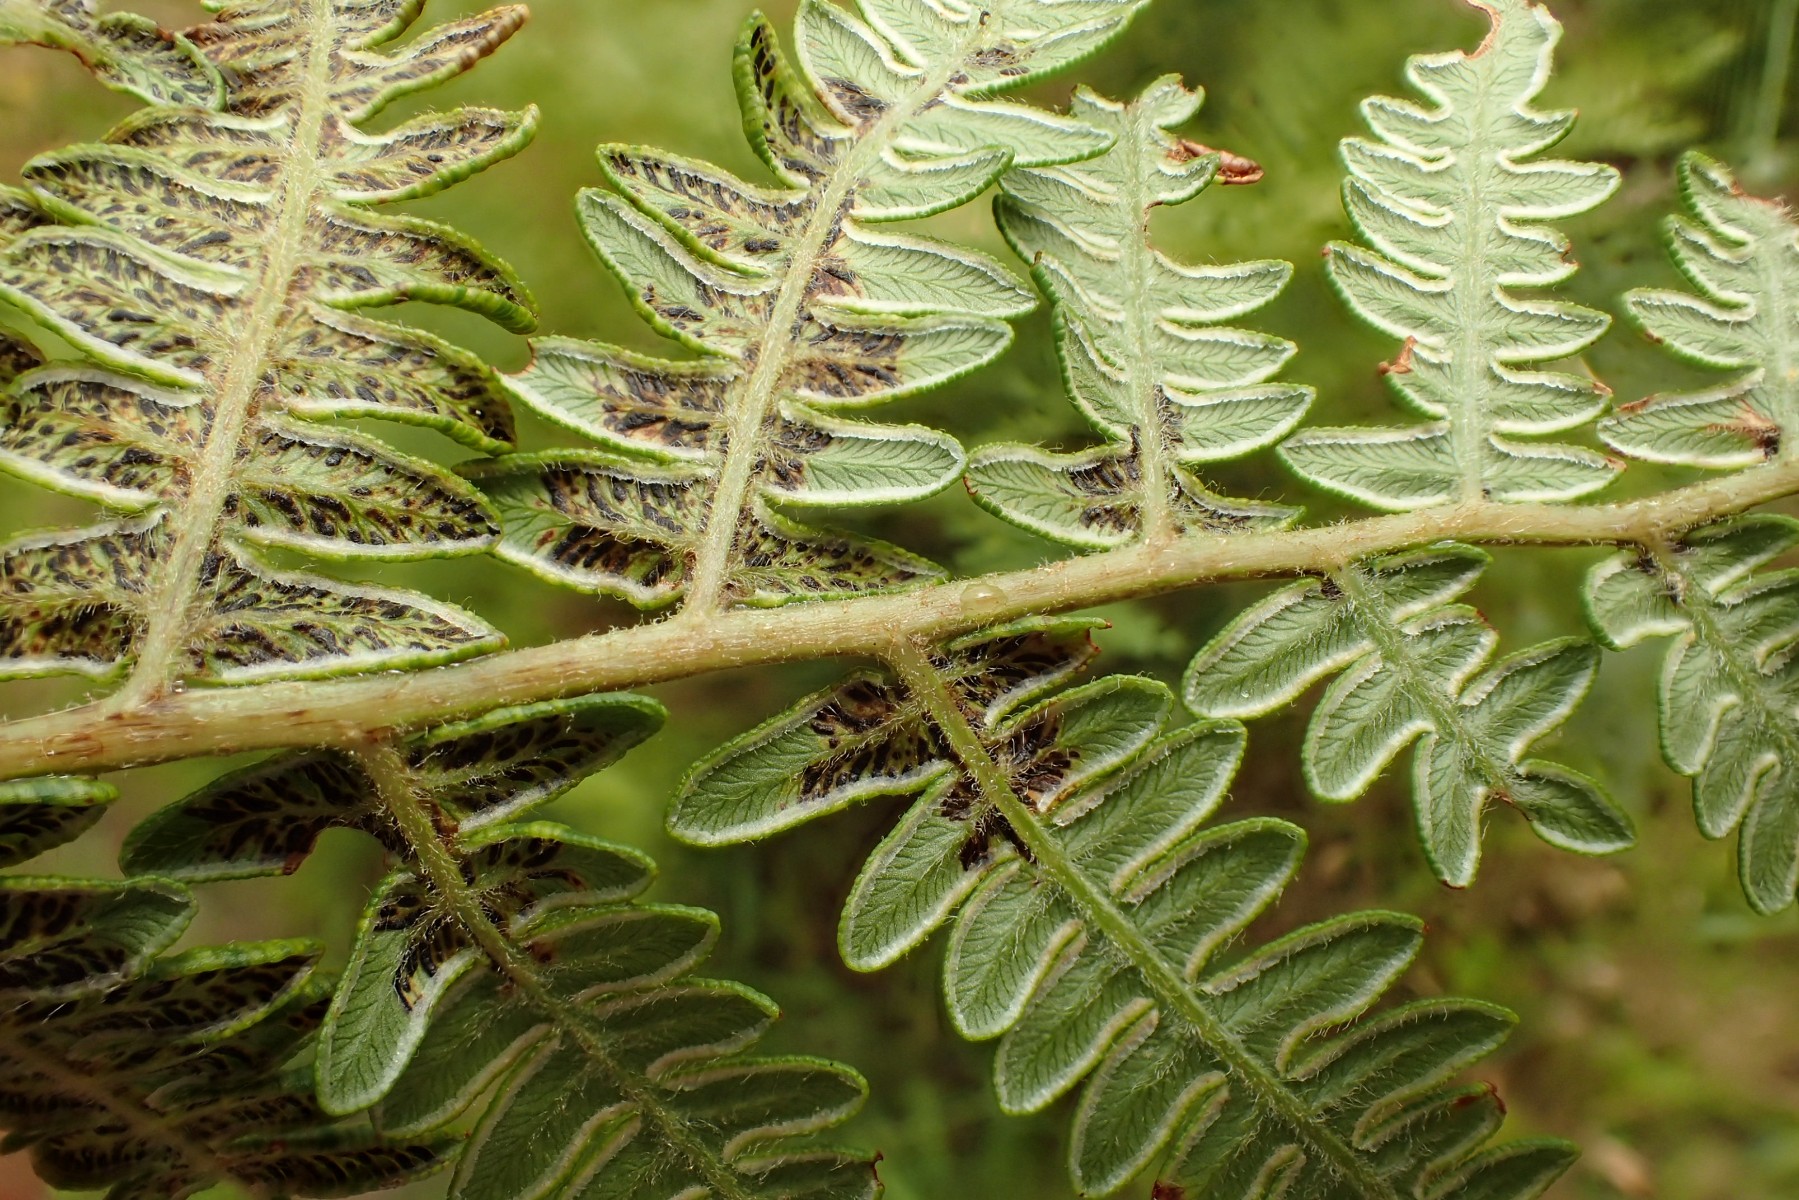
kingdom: Fungi
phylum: Ascomycota
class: Sordariomycetes
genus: Cryptomycina
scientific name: Cryptomycina pteridis
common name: bregneplet
